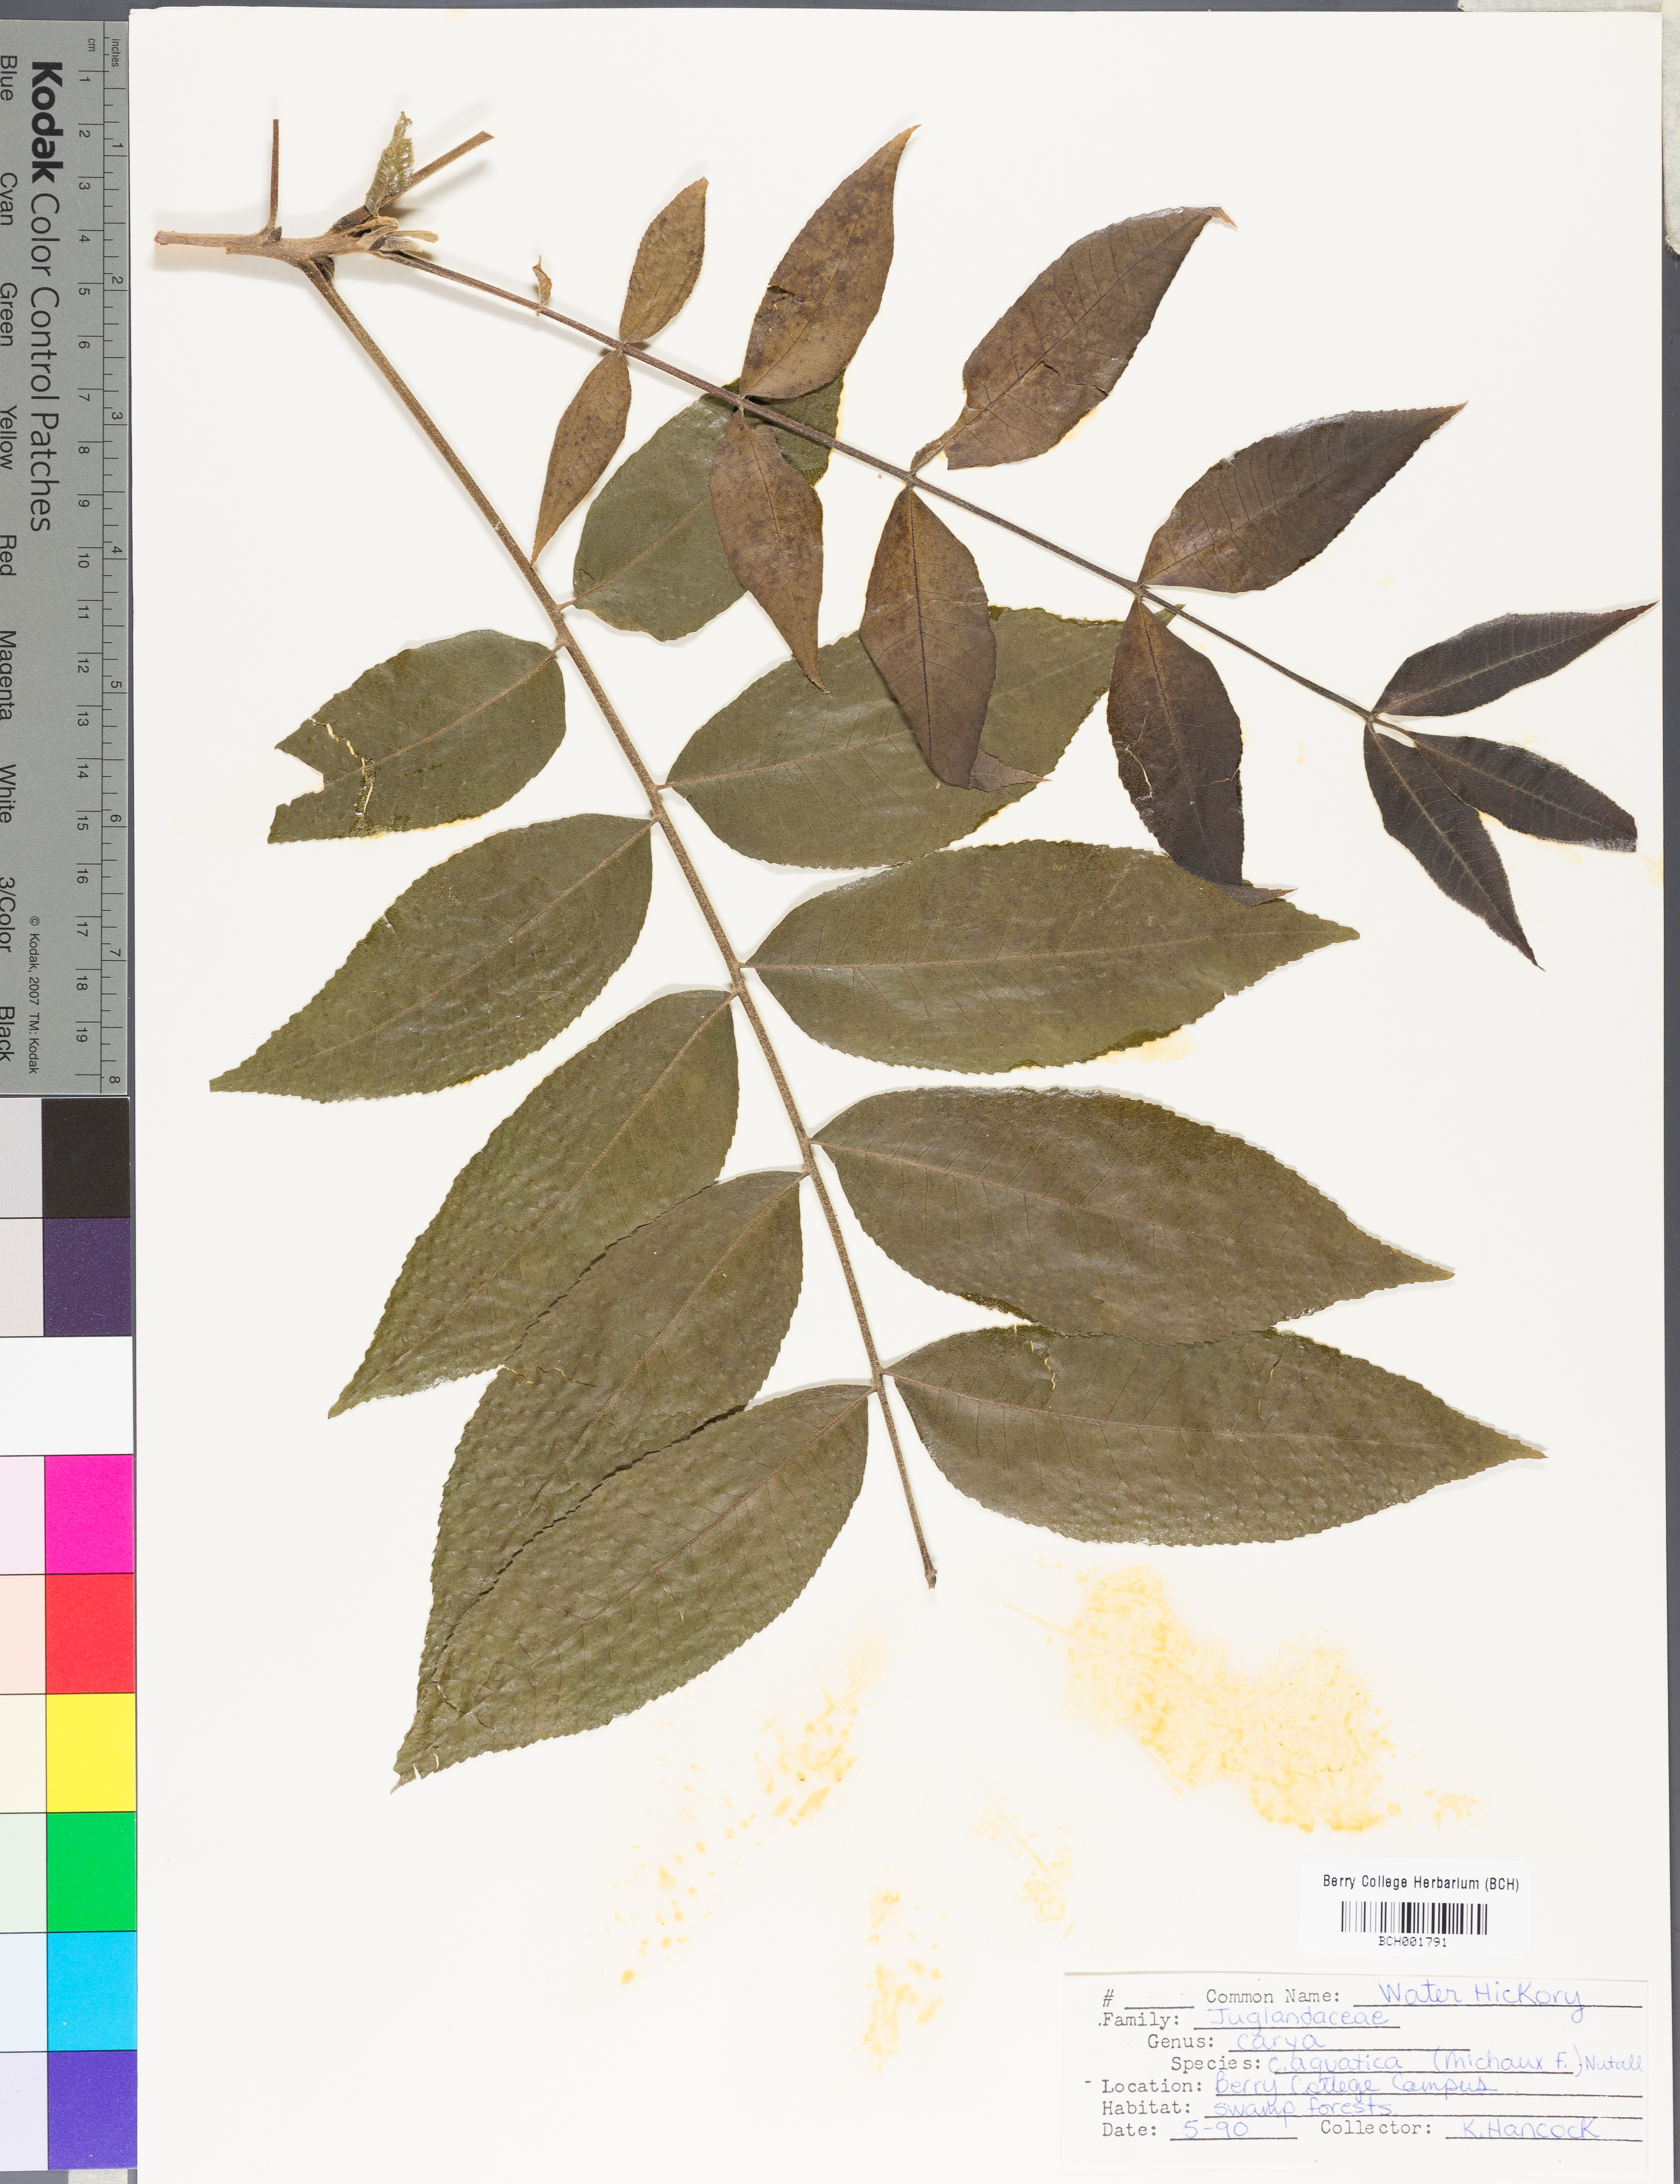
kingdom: Plantae
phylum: Tracheophyta
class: Magnoliopsida
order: Fagales
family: Juglandaceae
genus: Carya
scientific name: Carya aquatica
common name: Water hickory
